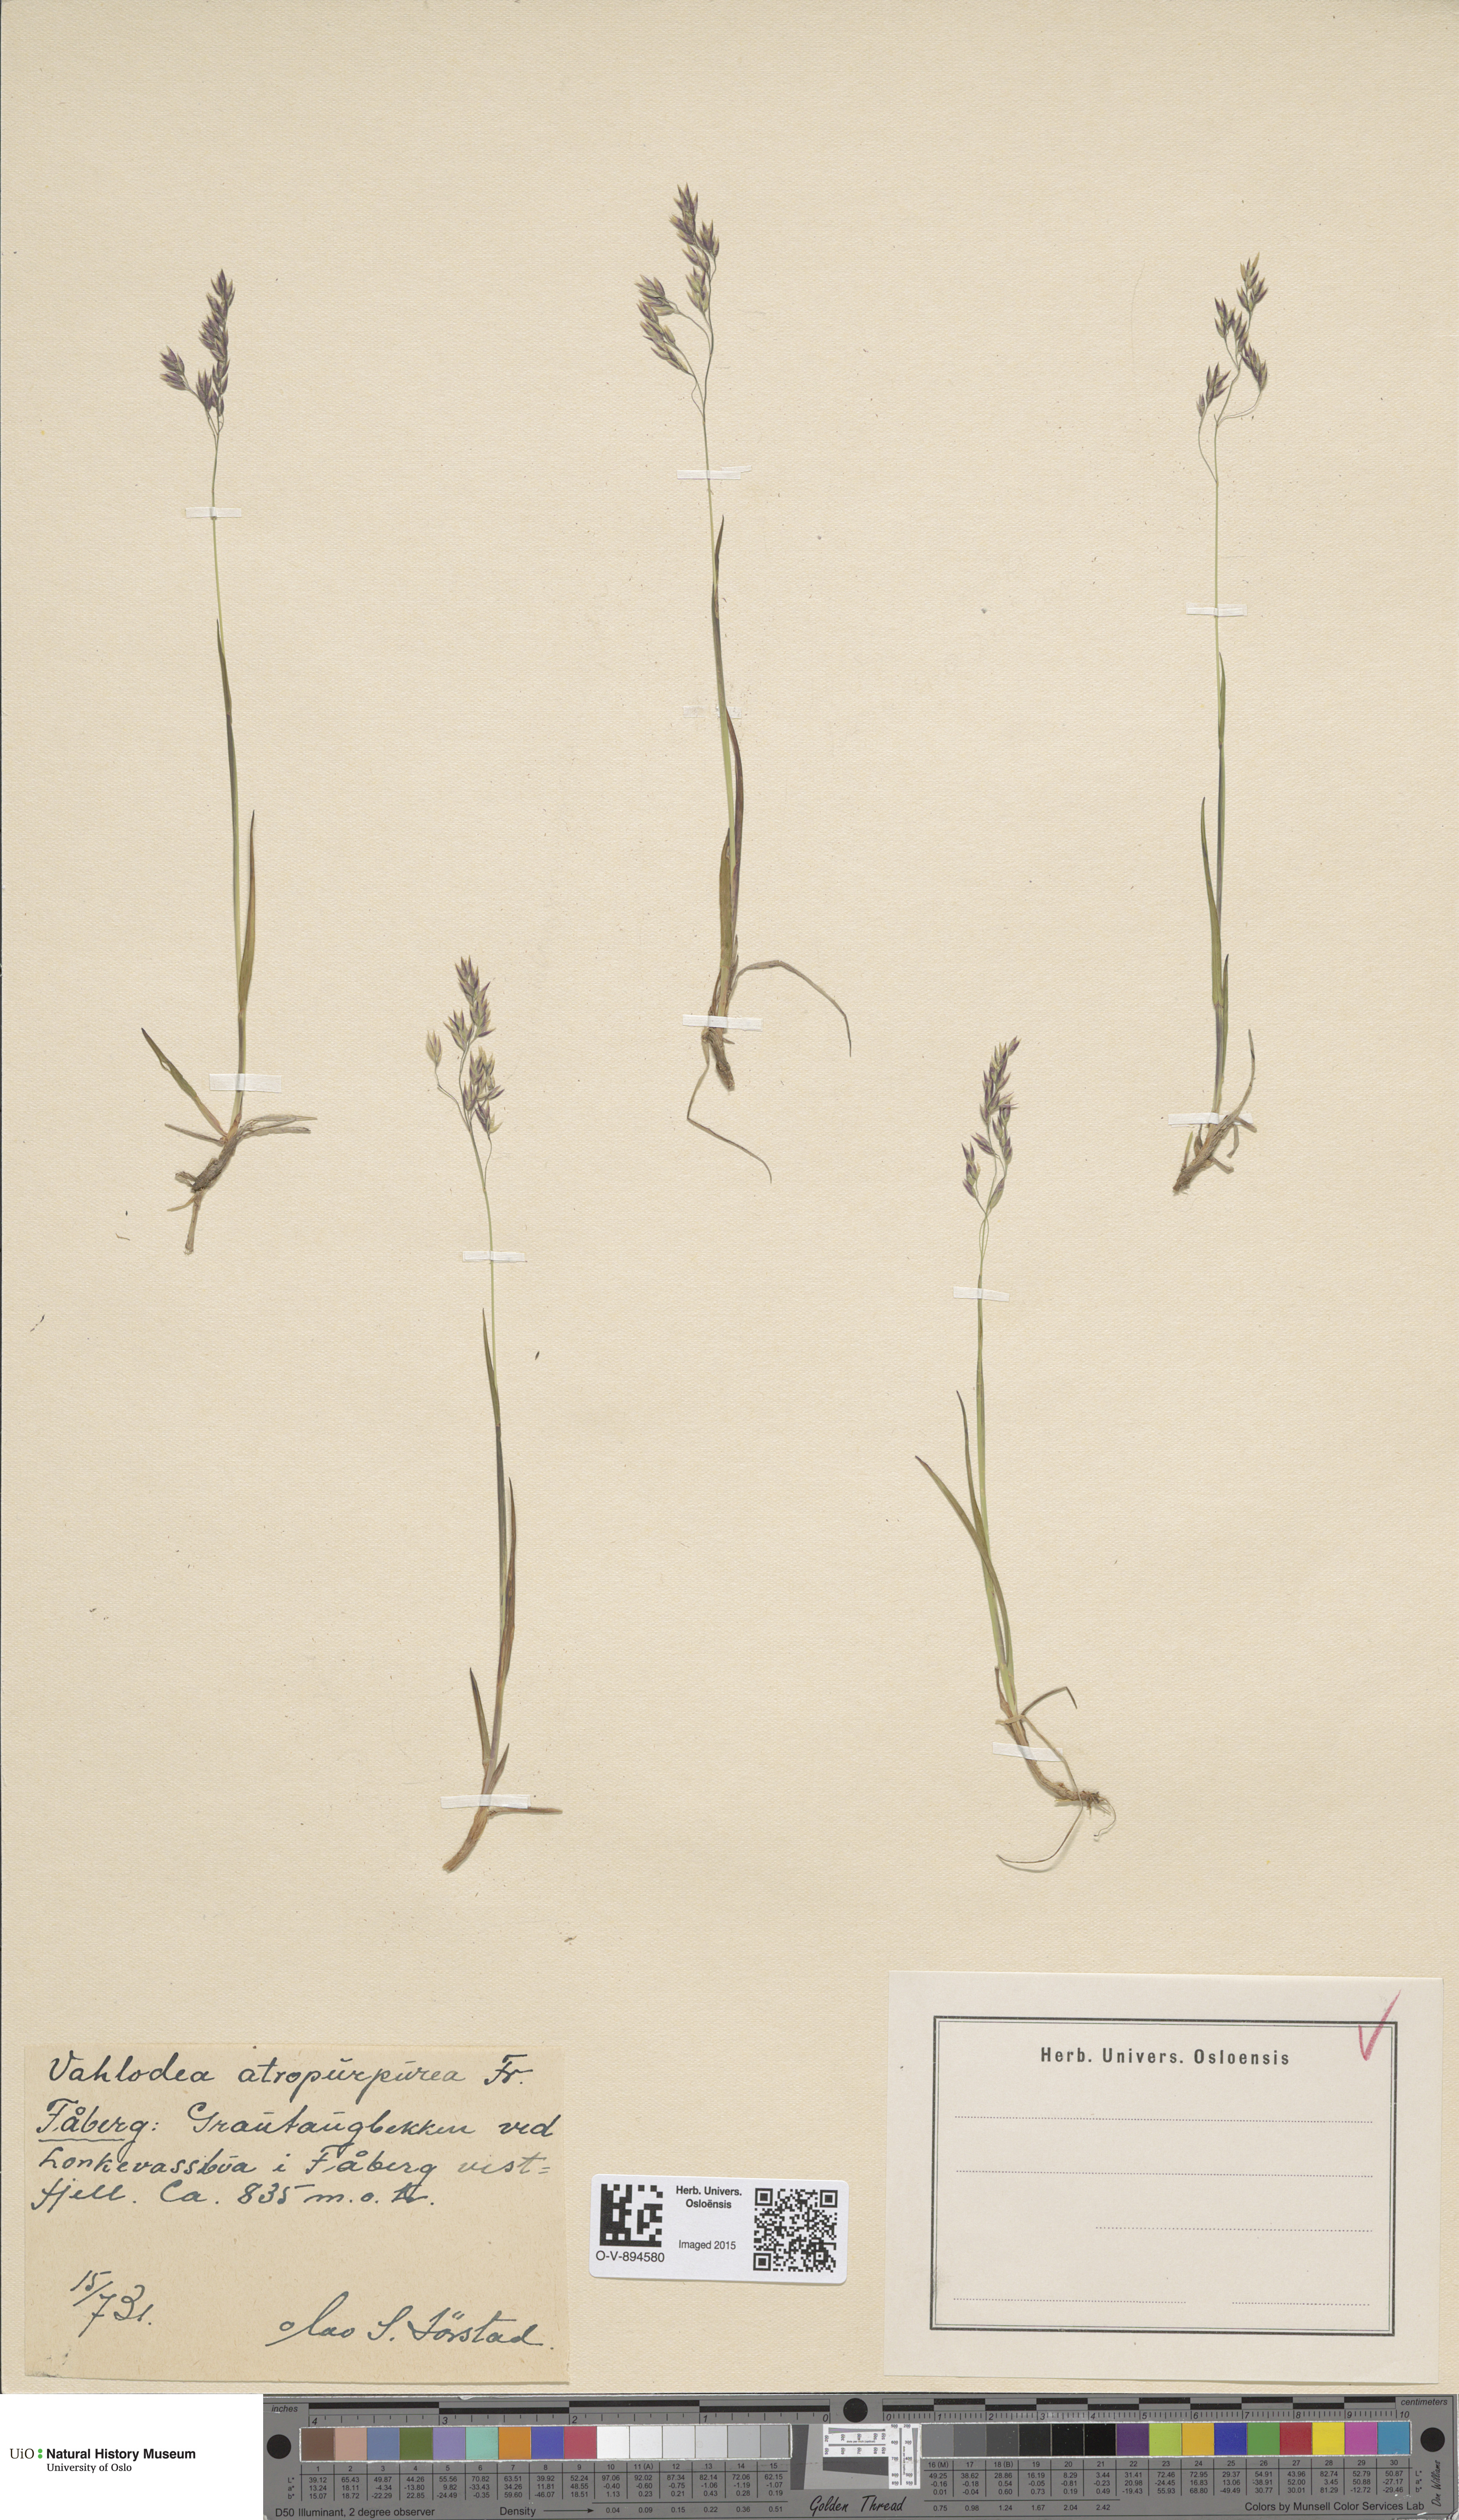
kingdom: Plantae
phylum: Tracheophyta
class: Liliopsida
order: Poales
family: Poaceae
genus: Vahlodea
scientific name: Vahlodea atropurpurea
